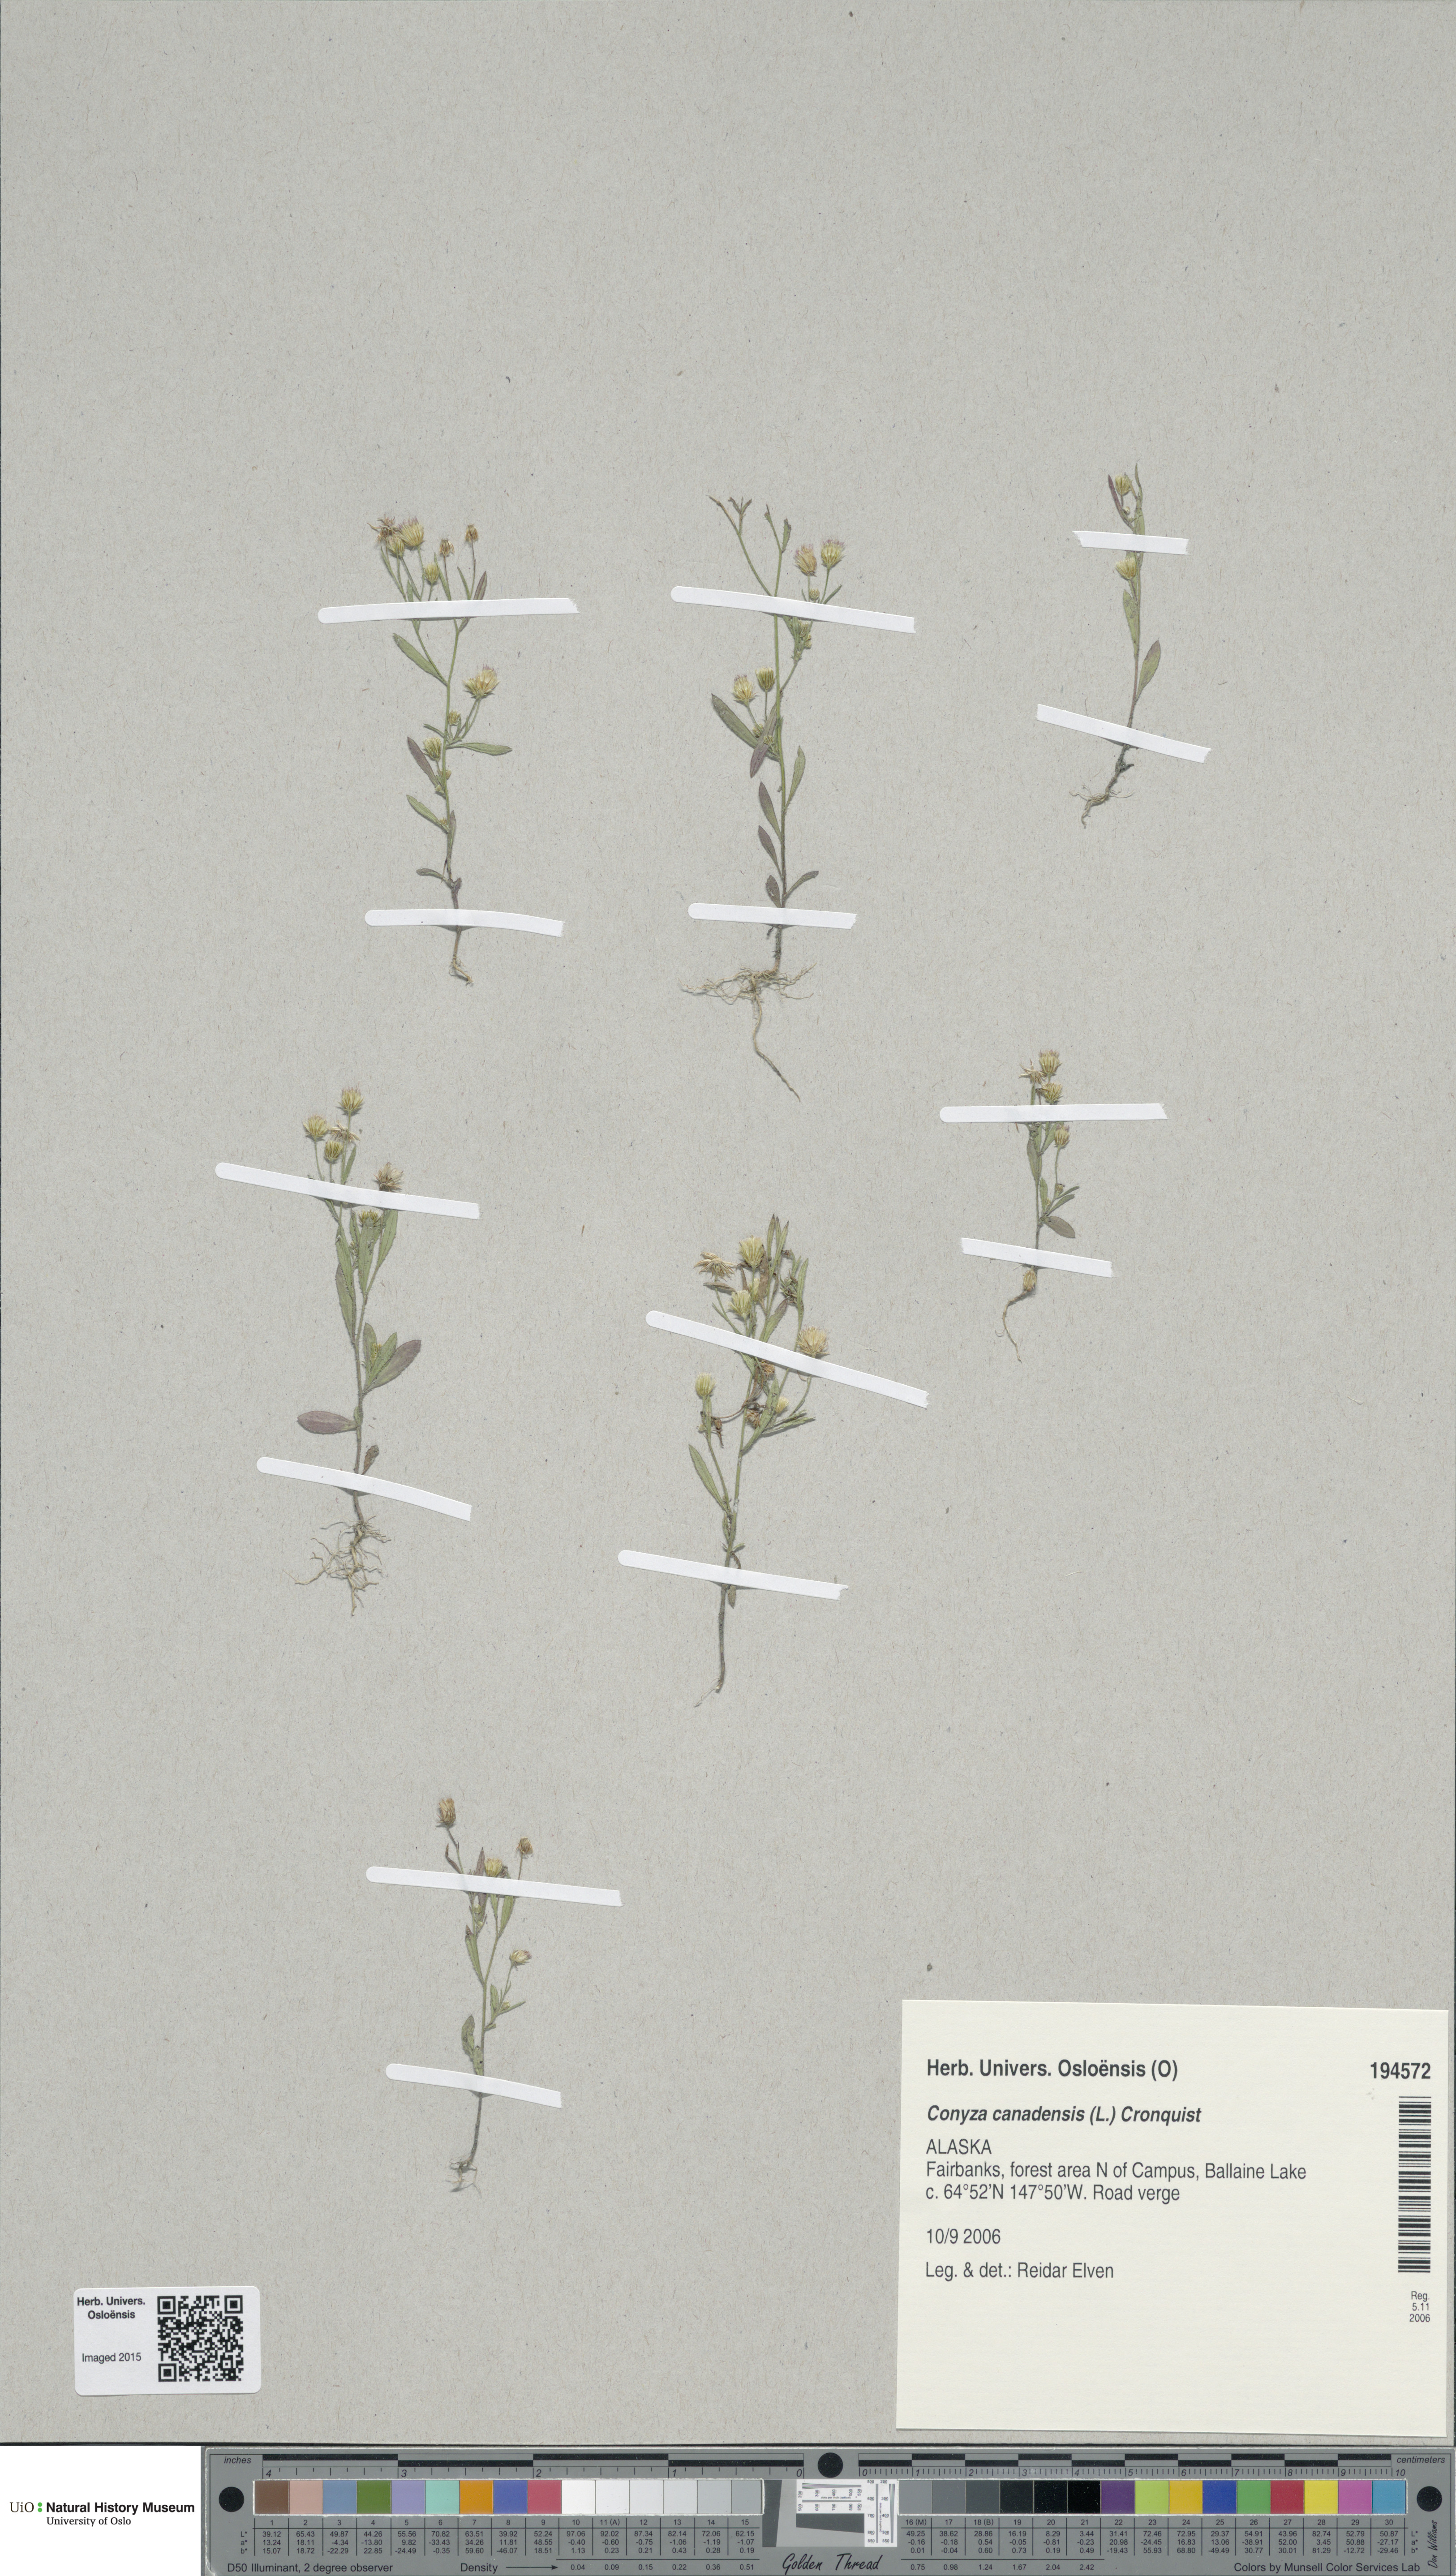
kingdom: Plantae
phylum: Tracheophyta
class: Magnoliopsida
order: Asterales
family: Asteraceae
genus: Erigeron
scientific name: Erigeron canadensis
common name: Canadian fleabane
